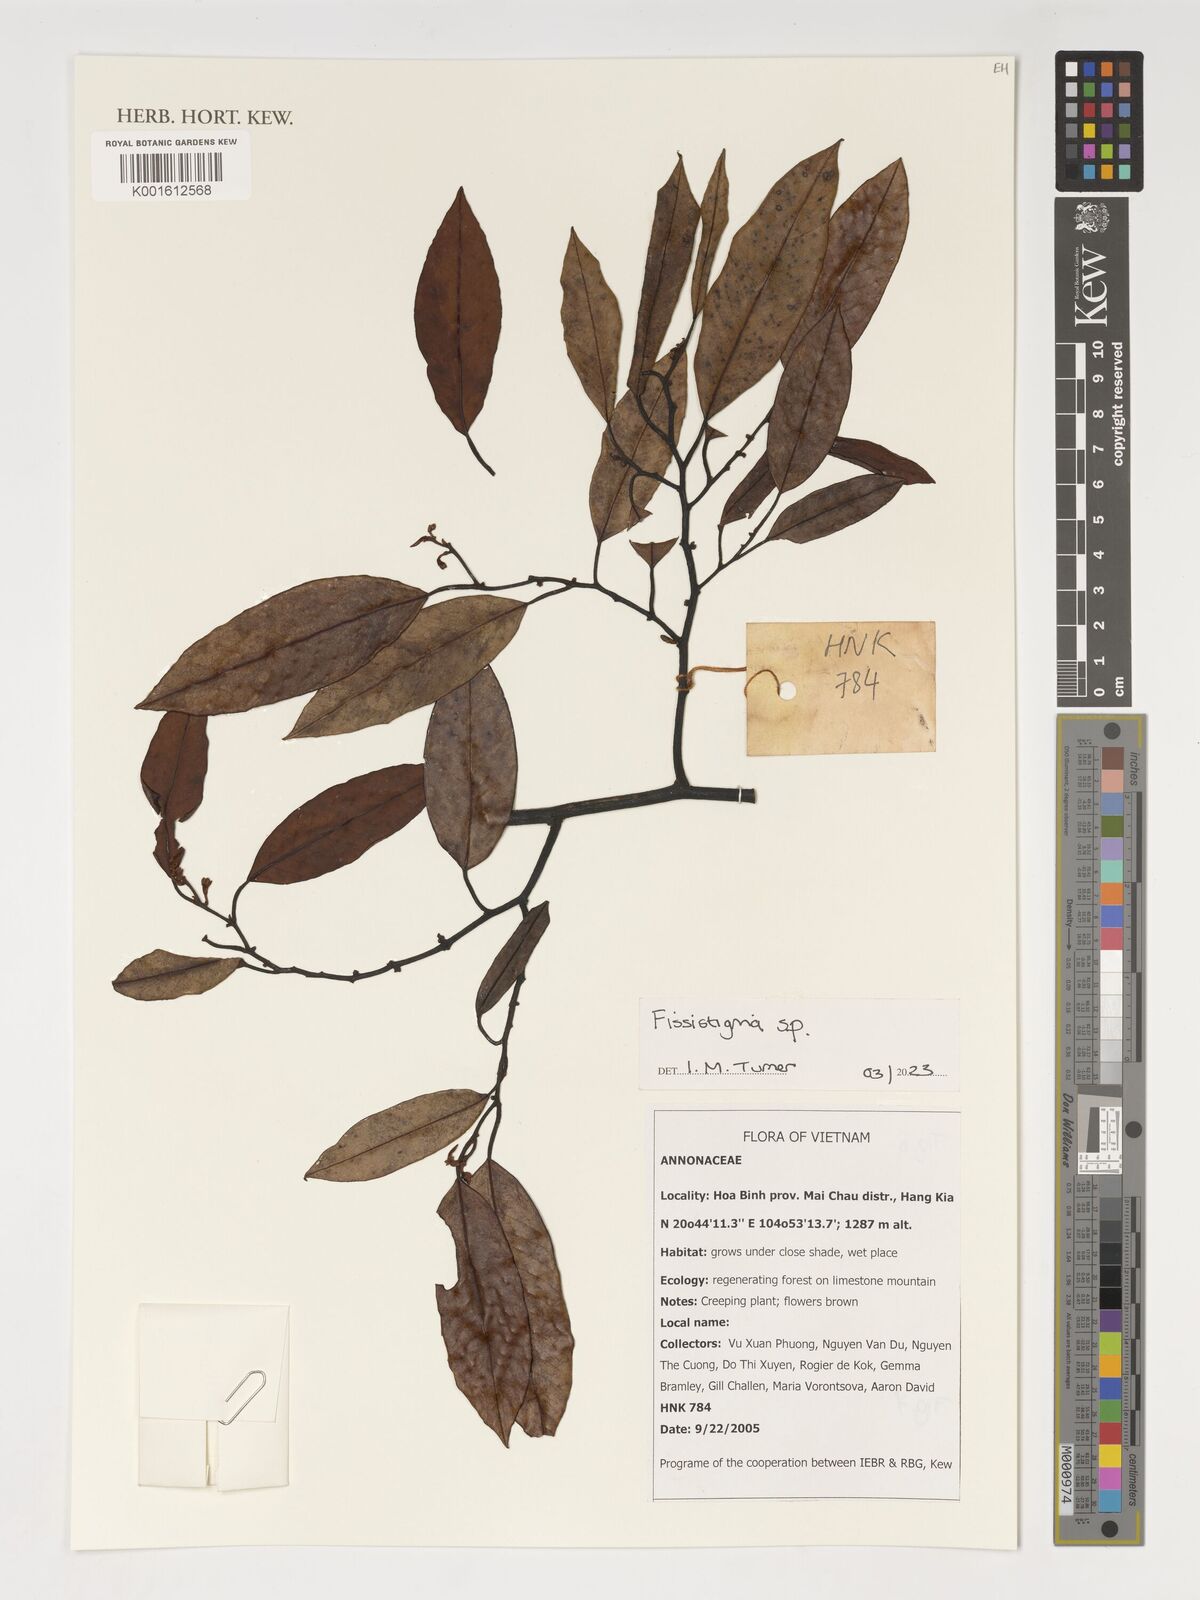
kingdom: Plantae
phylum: Tracheophyta
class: Magnoliopsida
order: Magnoliales
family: Annonaceae
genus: Fissistigma
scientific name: Fissistigma
